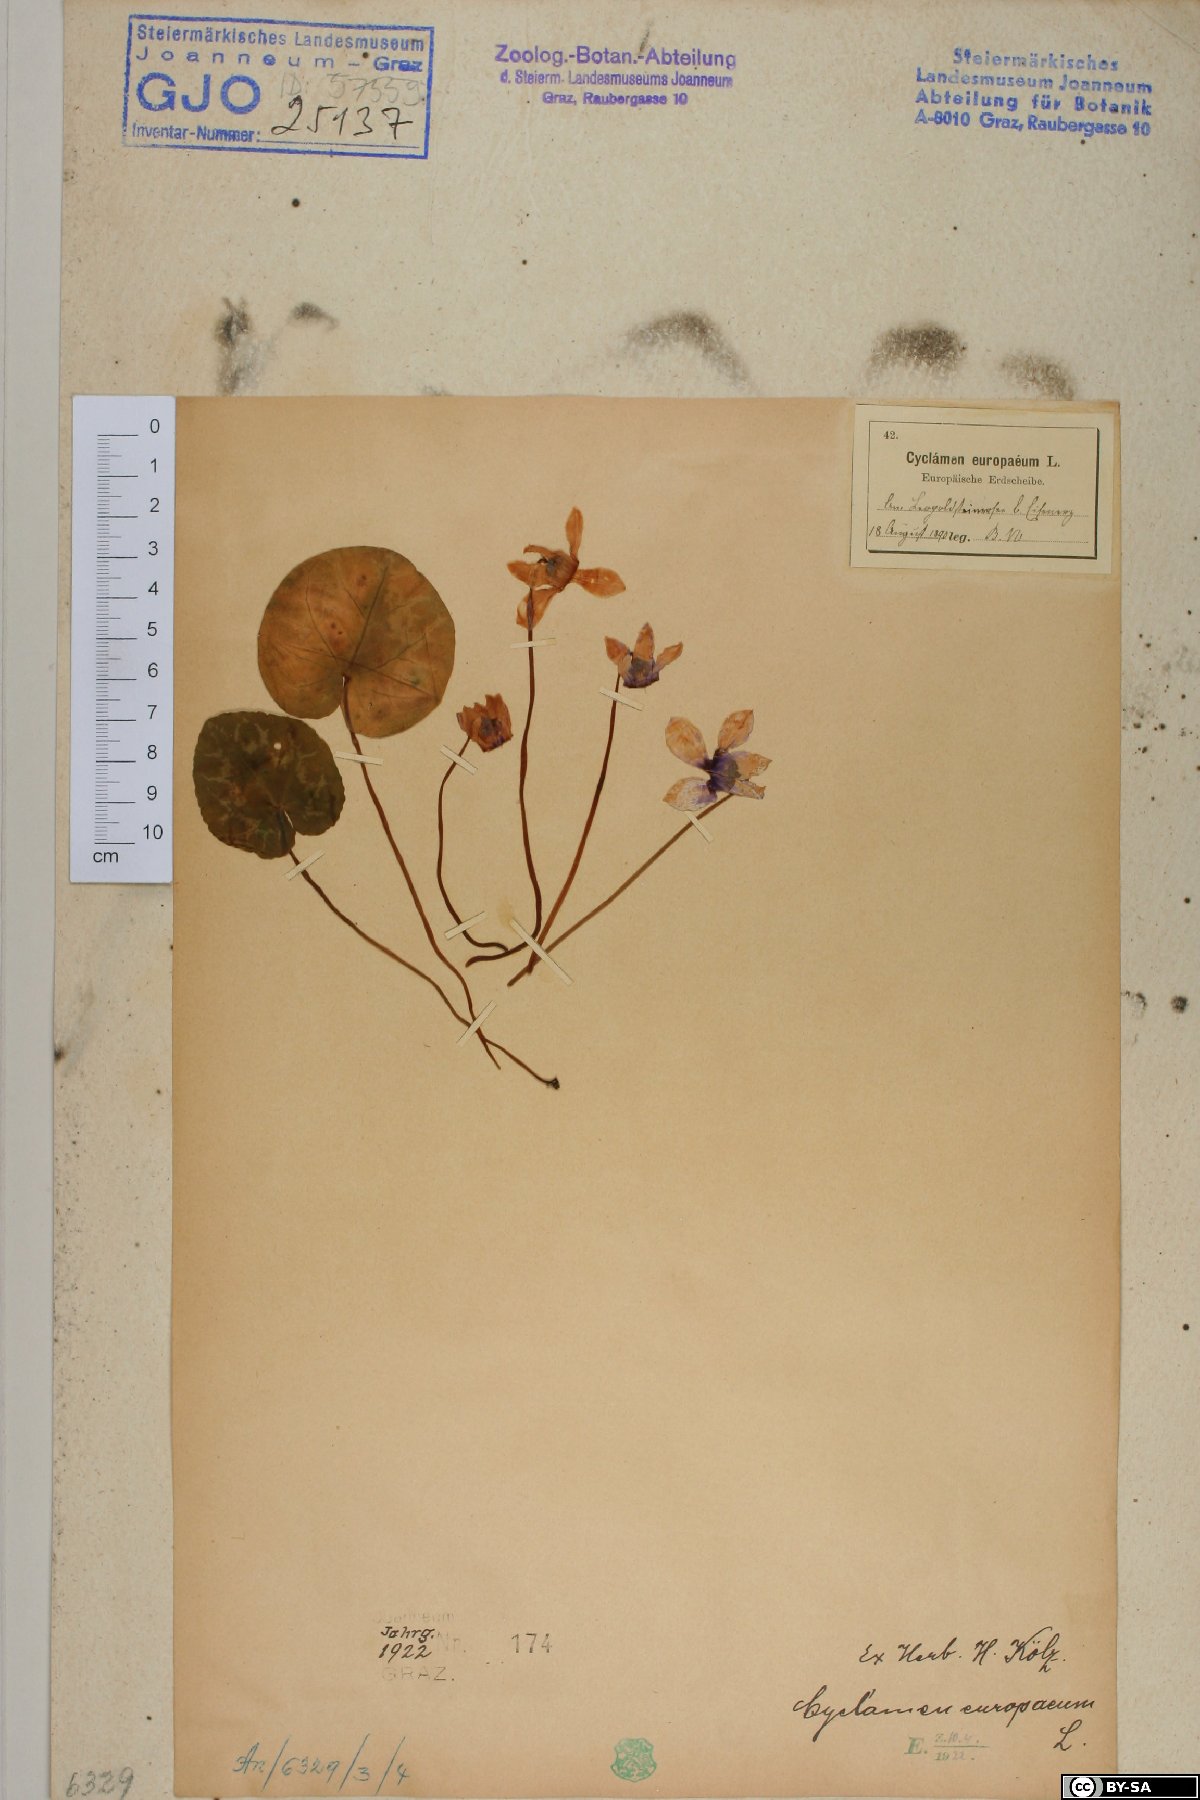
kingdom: Plantae
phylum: Tracheophyta
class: Magnoliopsida
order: Ericales
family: Primulaceae
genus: Cyclamen
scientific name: Cyclamen purpurascens
